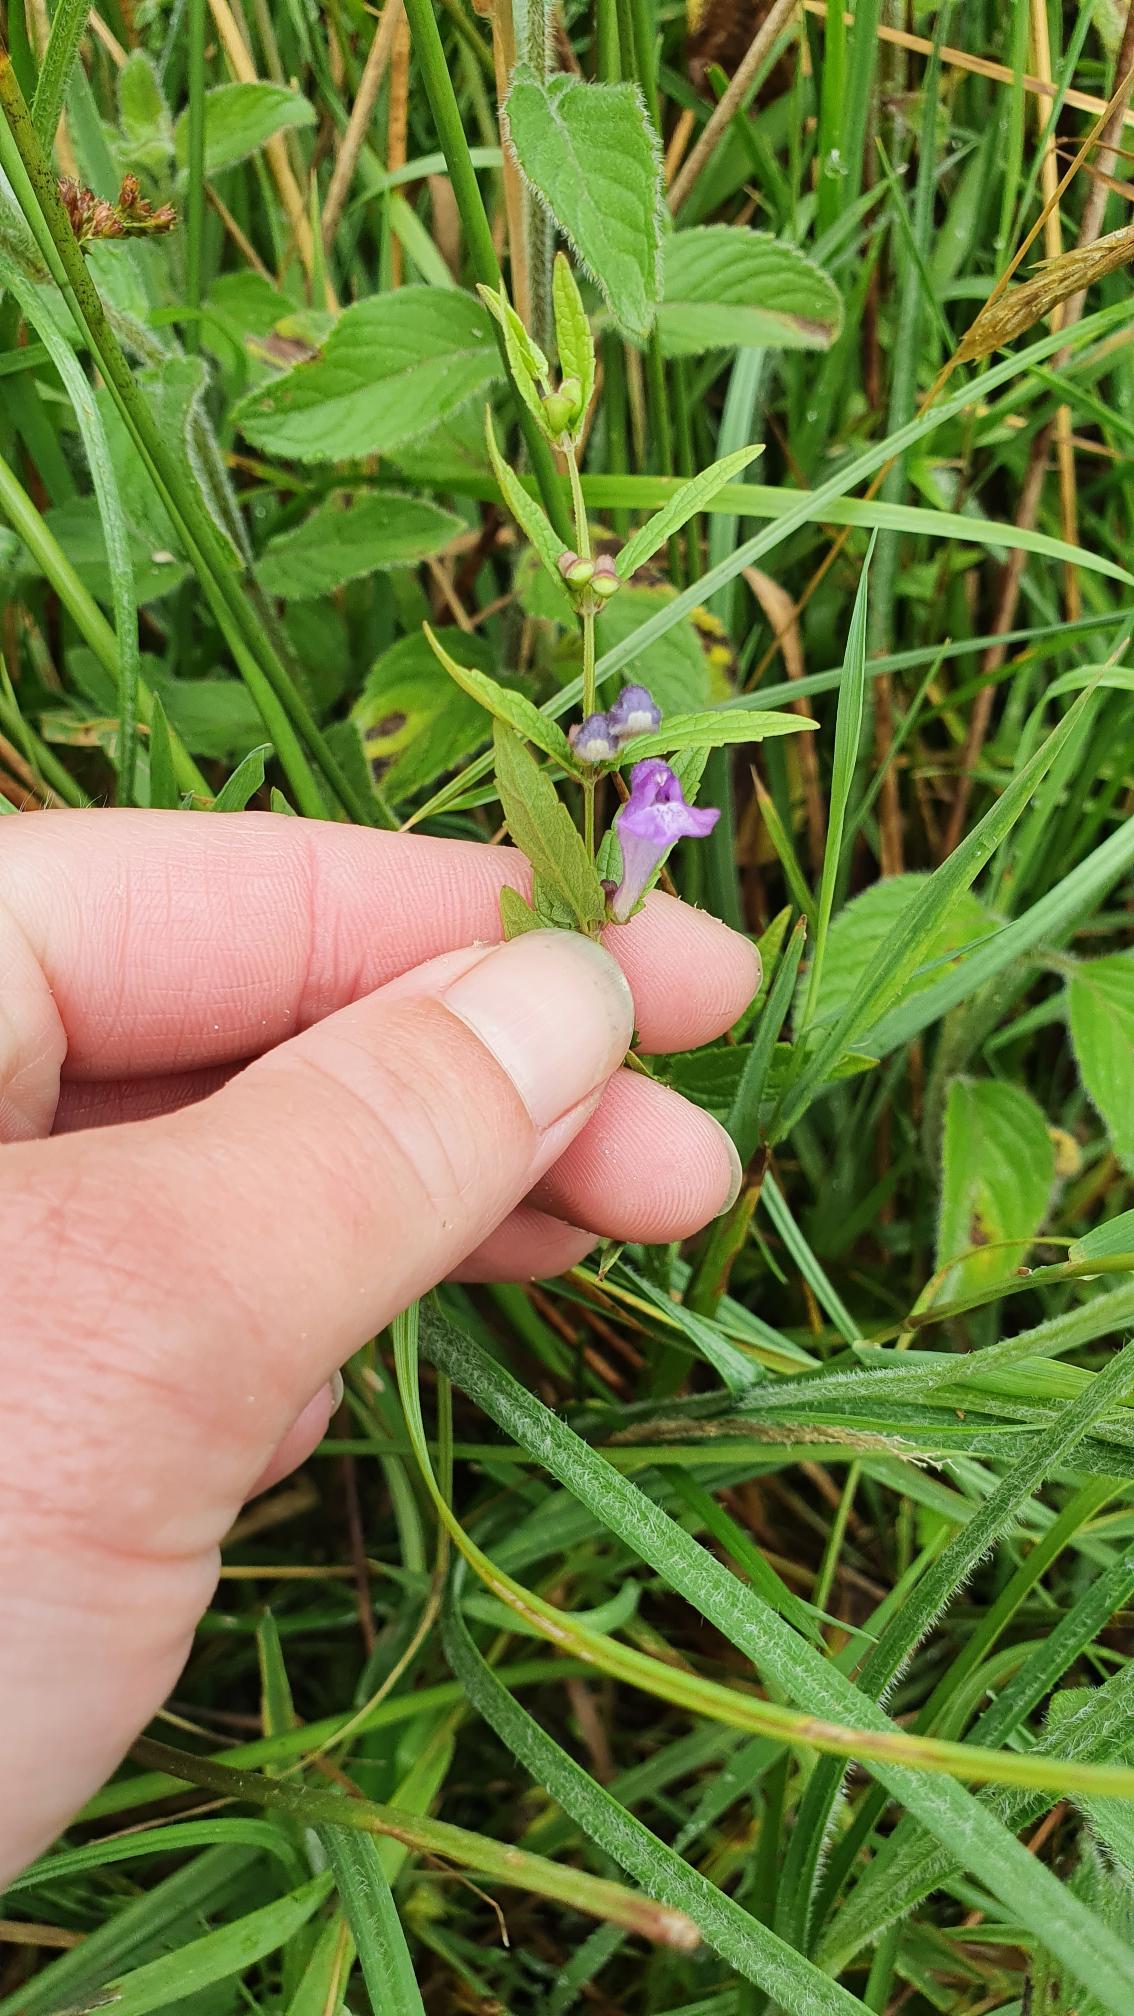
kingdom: Plantae
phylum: Tracheophyta
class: Magnoliopsida
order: Lamiales
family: Lamiaceae
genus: Scutellaria
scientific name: Scutellaria galericulata
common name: Almindelig skjolddrager
